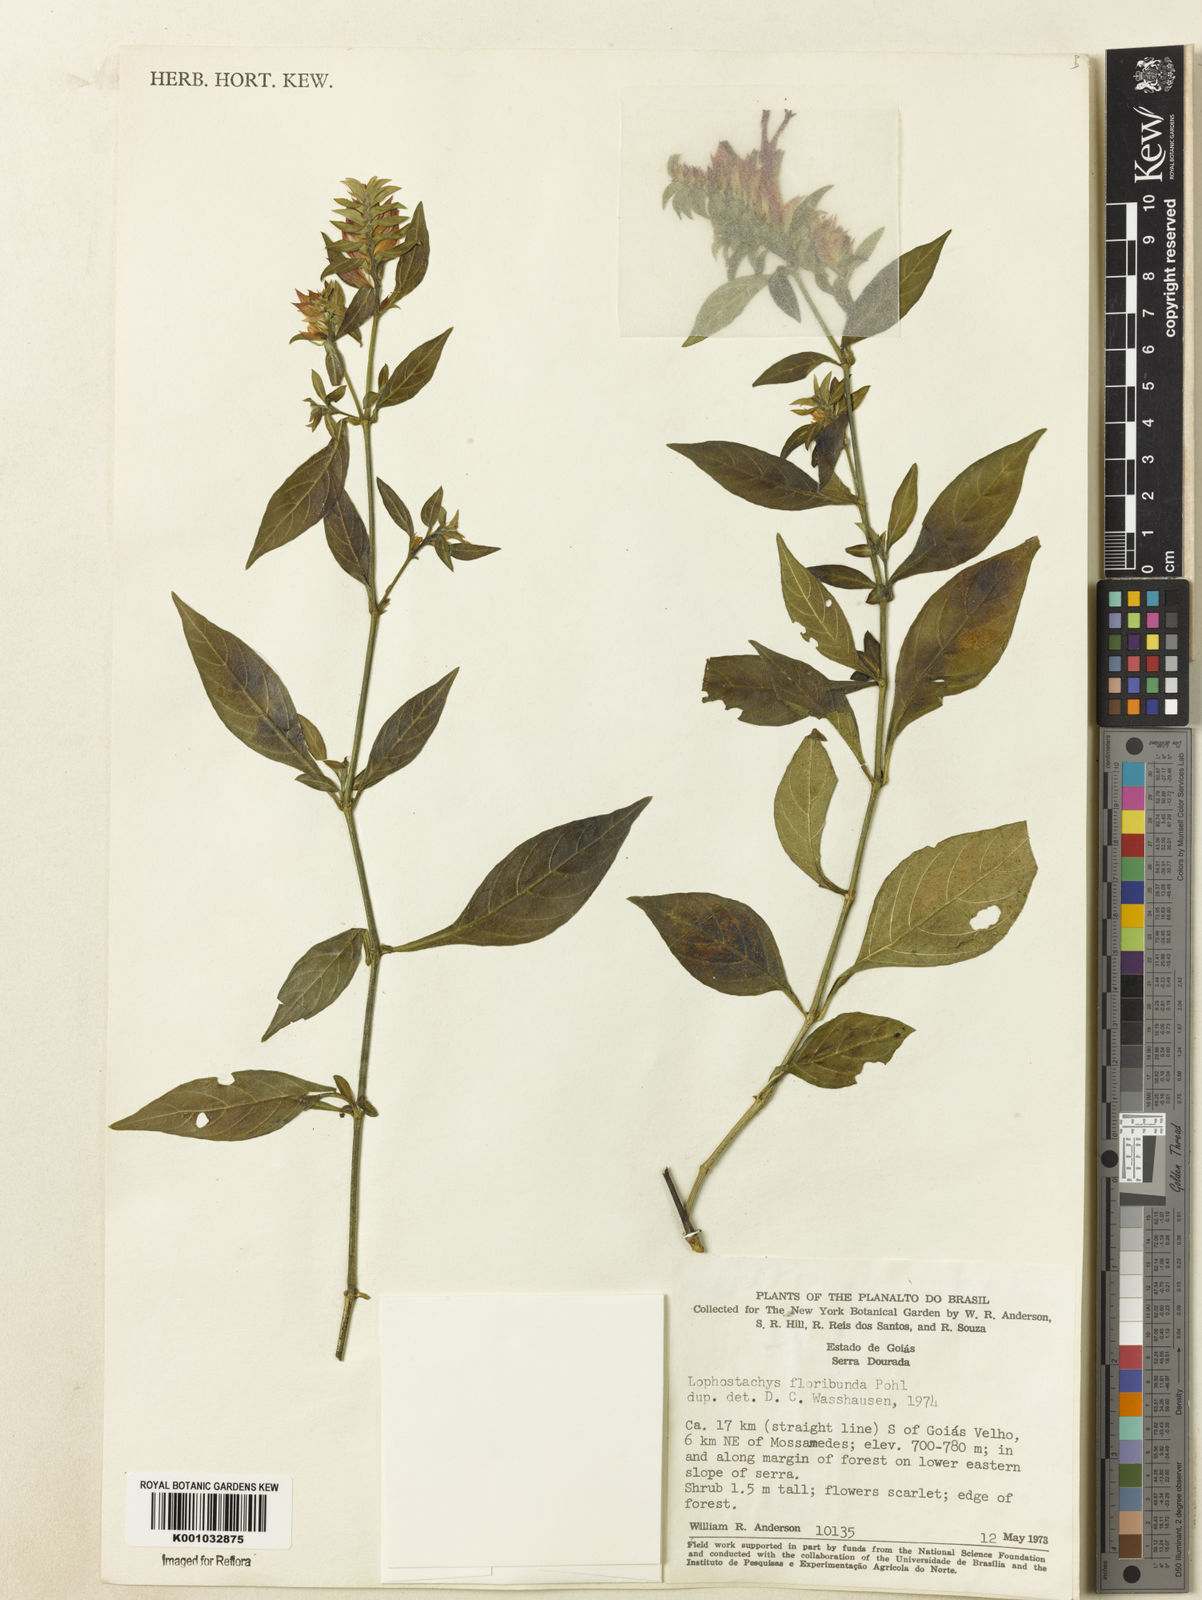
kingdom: Plantae
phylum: Tracheophyta
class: Magnoliopsida
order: Lamiales
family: Acanthaceae
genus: Lepidagathis
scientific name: Lepidagathis floribunda
